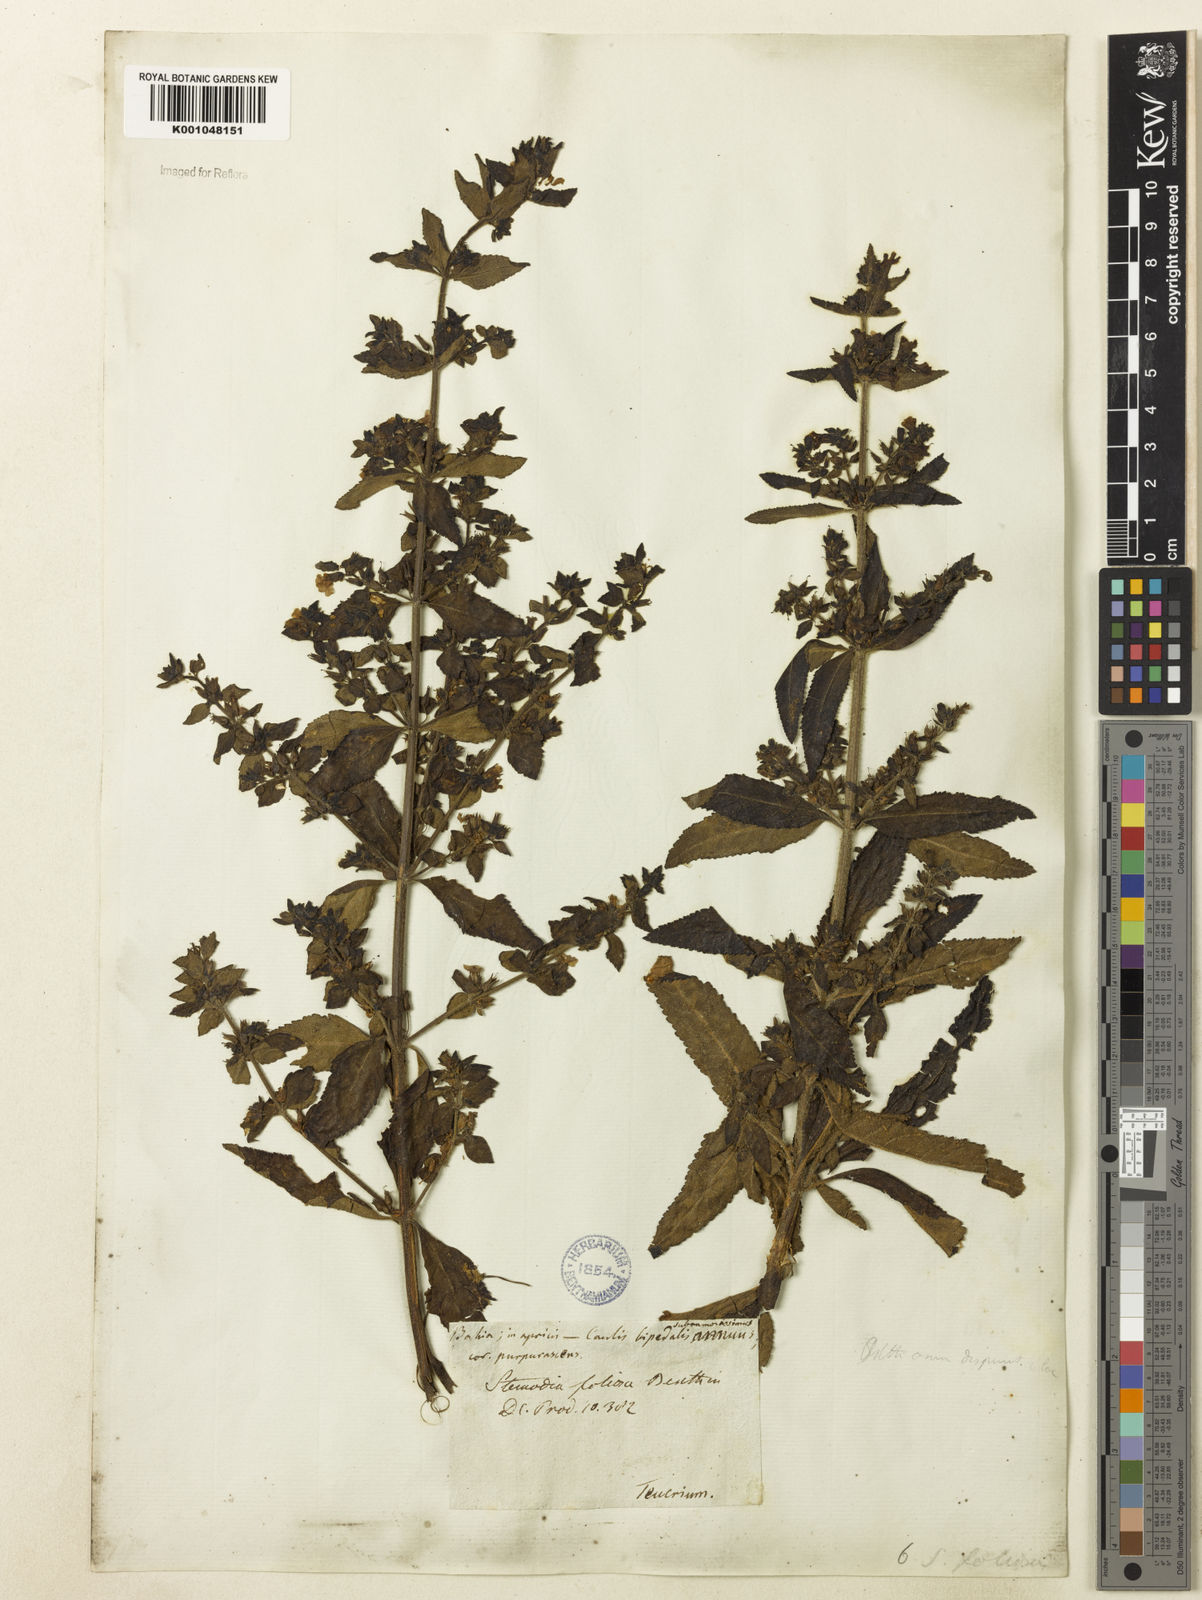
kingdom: Plantae
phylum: Tracheophyta
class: Magnoliopsida
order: Lamiales
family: Plantaginaceae
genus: Stemodia
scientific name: Stemodia foliosa
